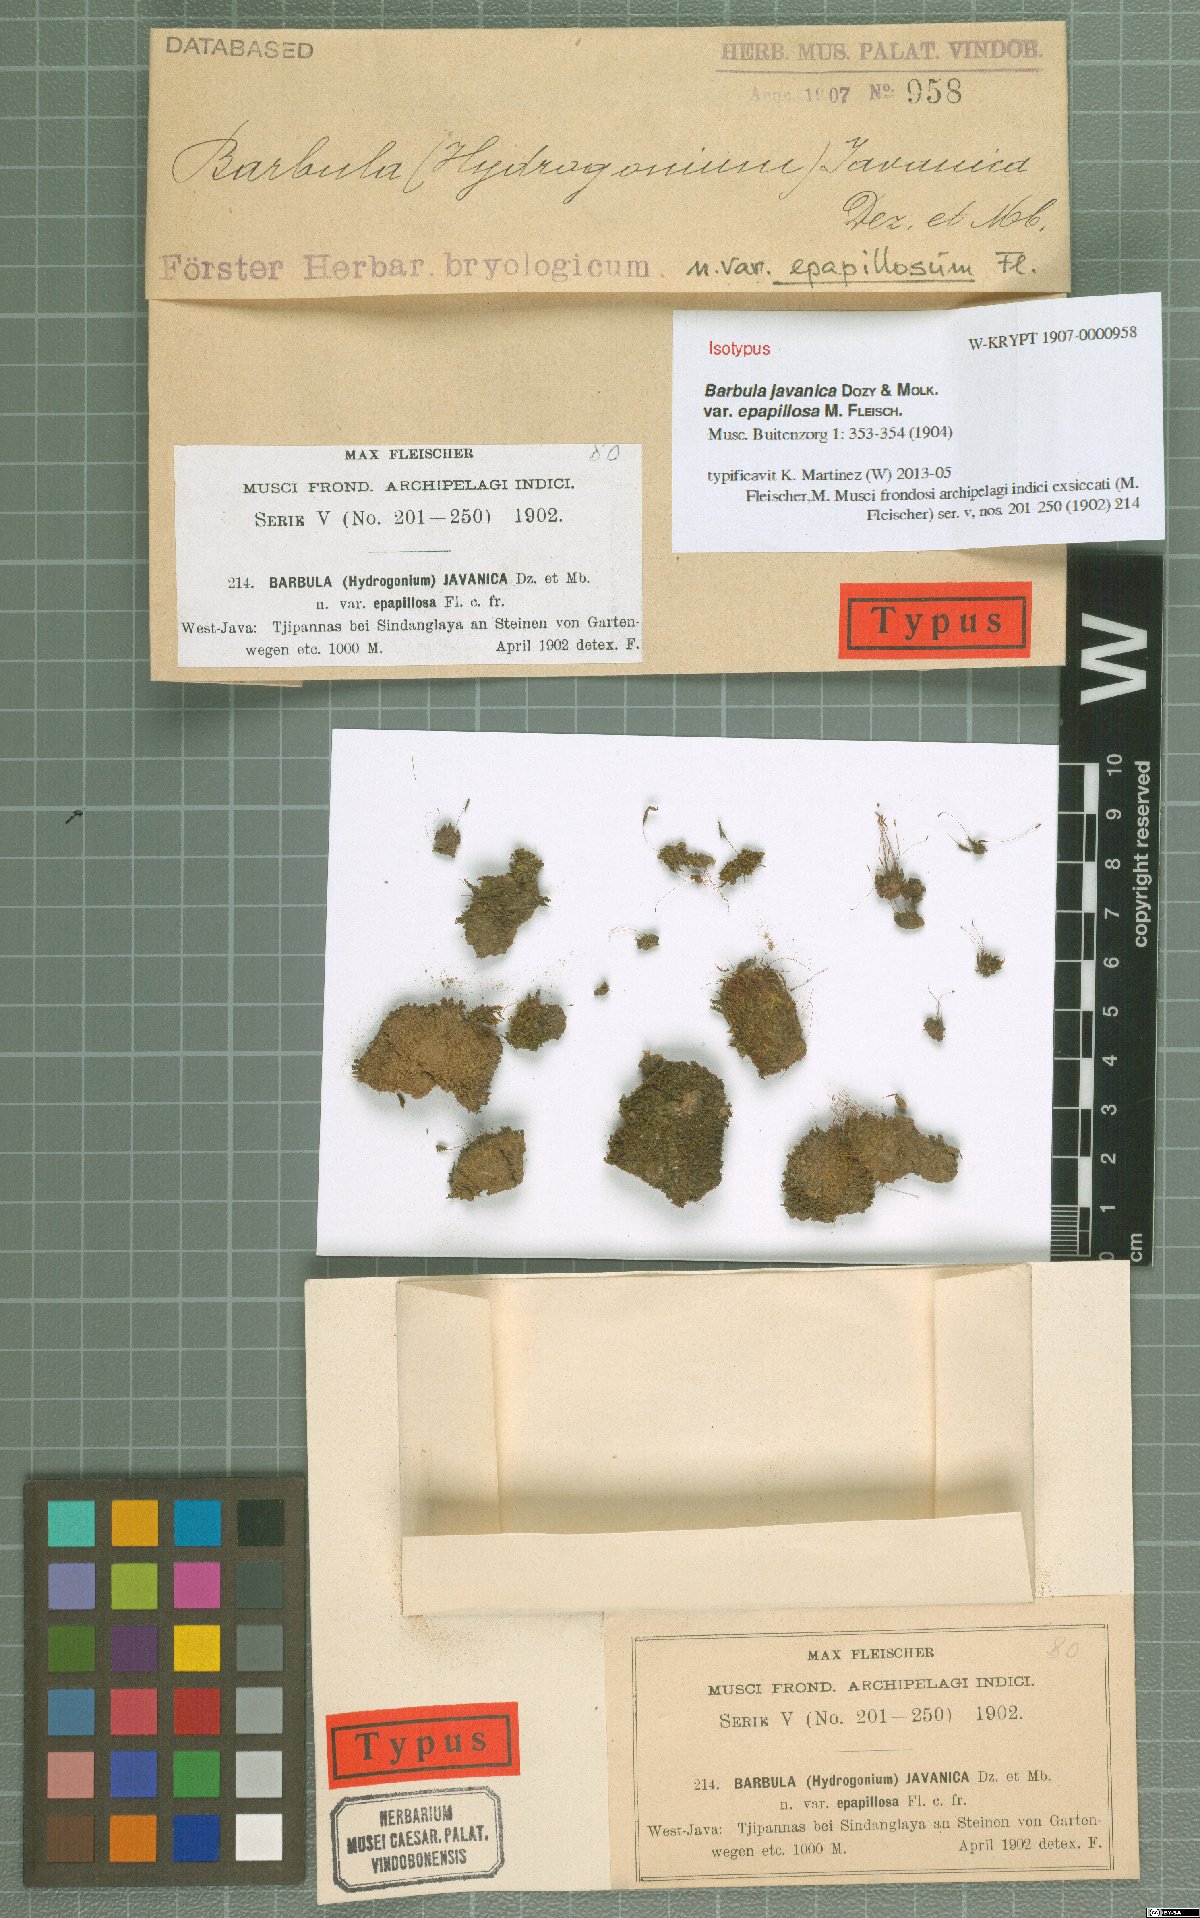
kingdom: Plantae
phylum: Bryophyta
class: Bryopsida
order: Pottiales
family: Pottiaceae
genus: Hydrogonium
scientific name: Hydrogonium javanicum
